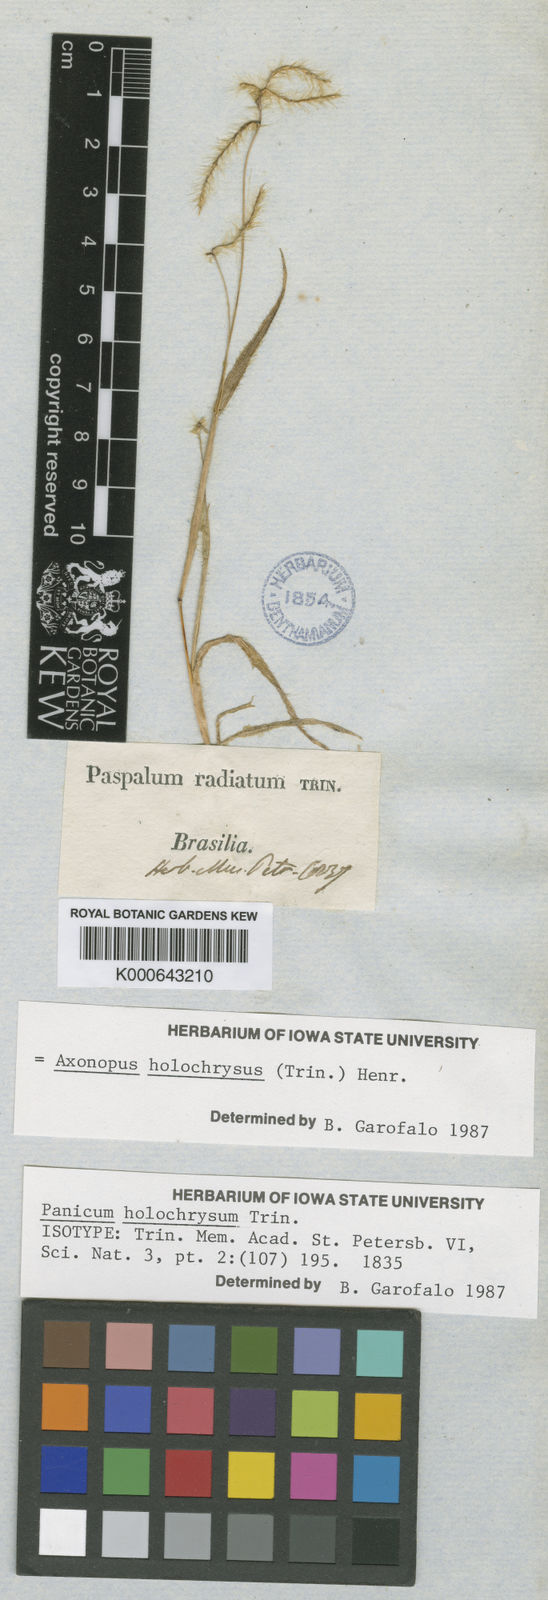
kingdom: Plantae
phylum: Tracheophyta
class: Liliopsida
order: Poales
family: Poaceae
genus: Axonopus
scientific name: Axonopus aureus
